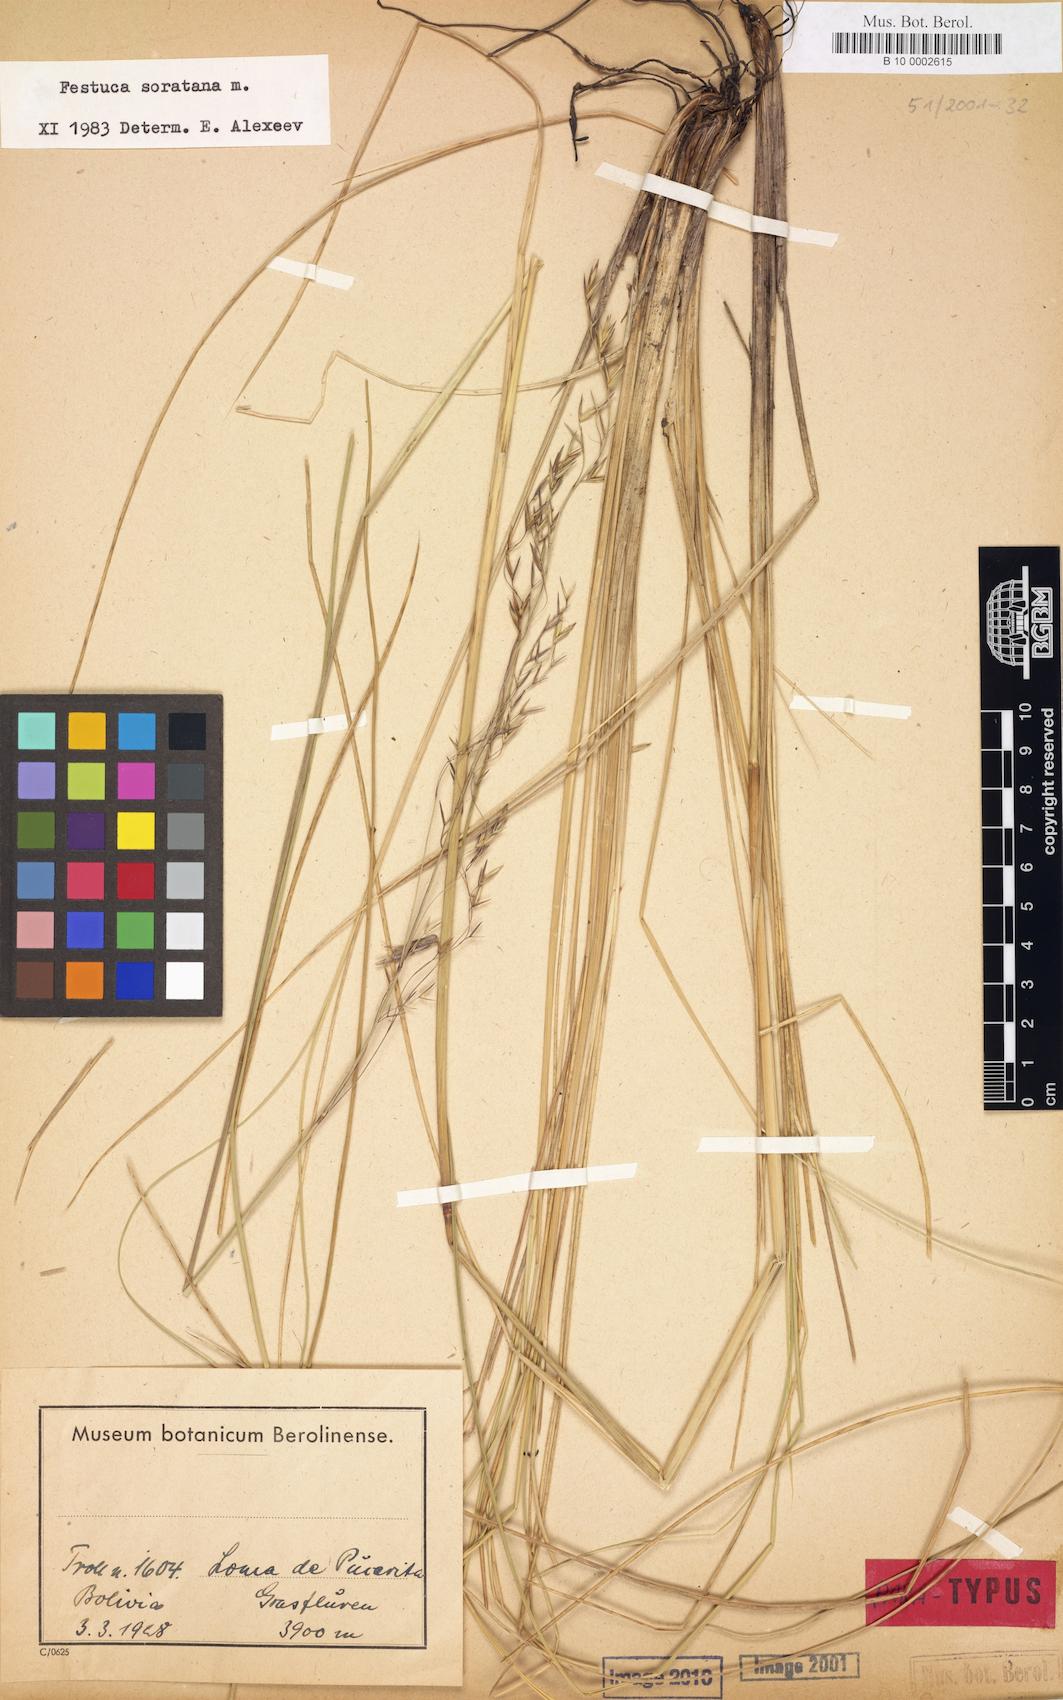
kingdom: Plantae
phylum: Tracheophyta
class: Liliopsida
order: Poales
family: Poaceae
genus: Festuca
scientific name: Festuca soratana
